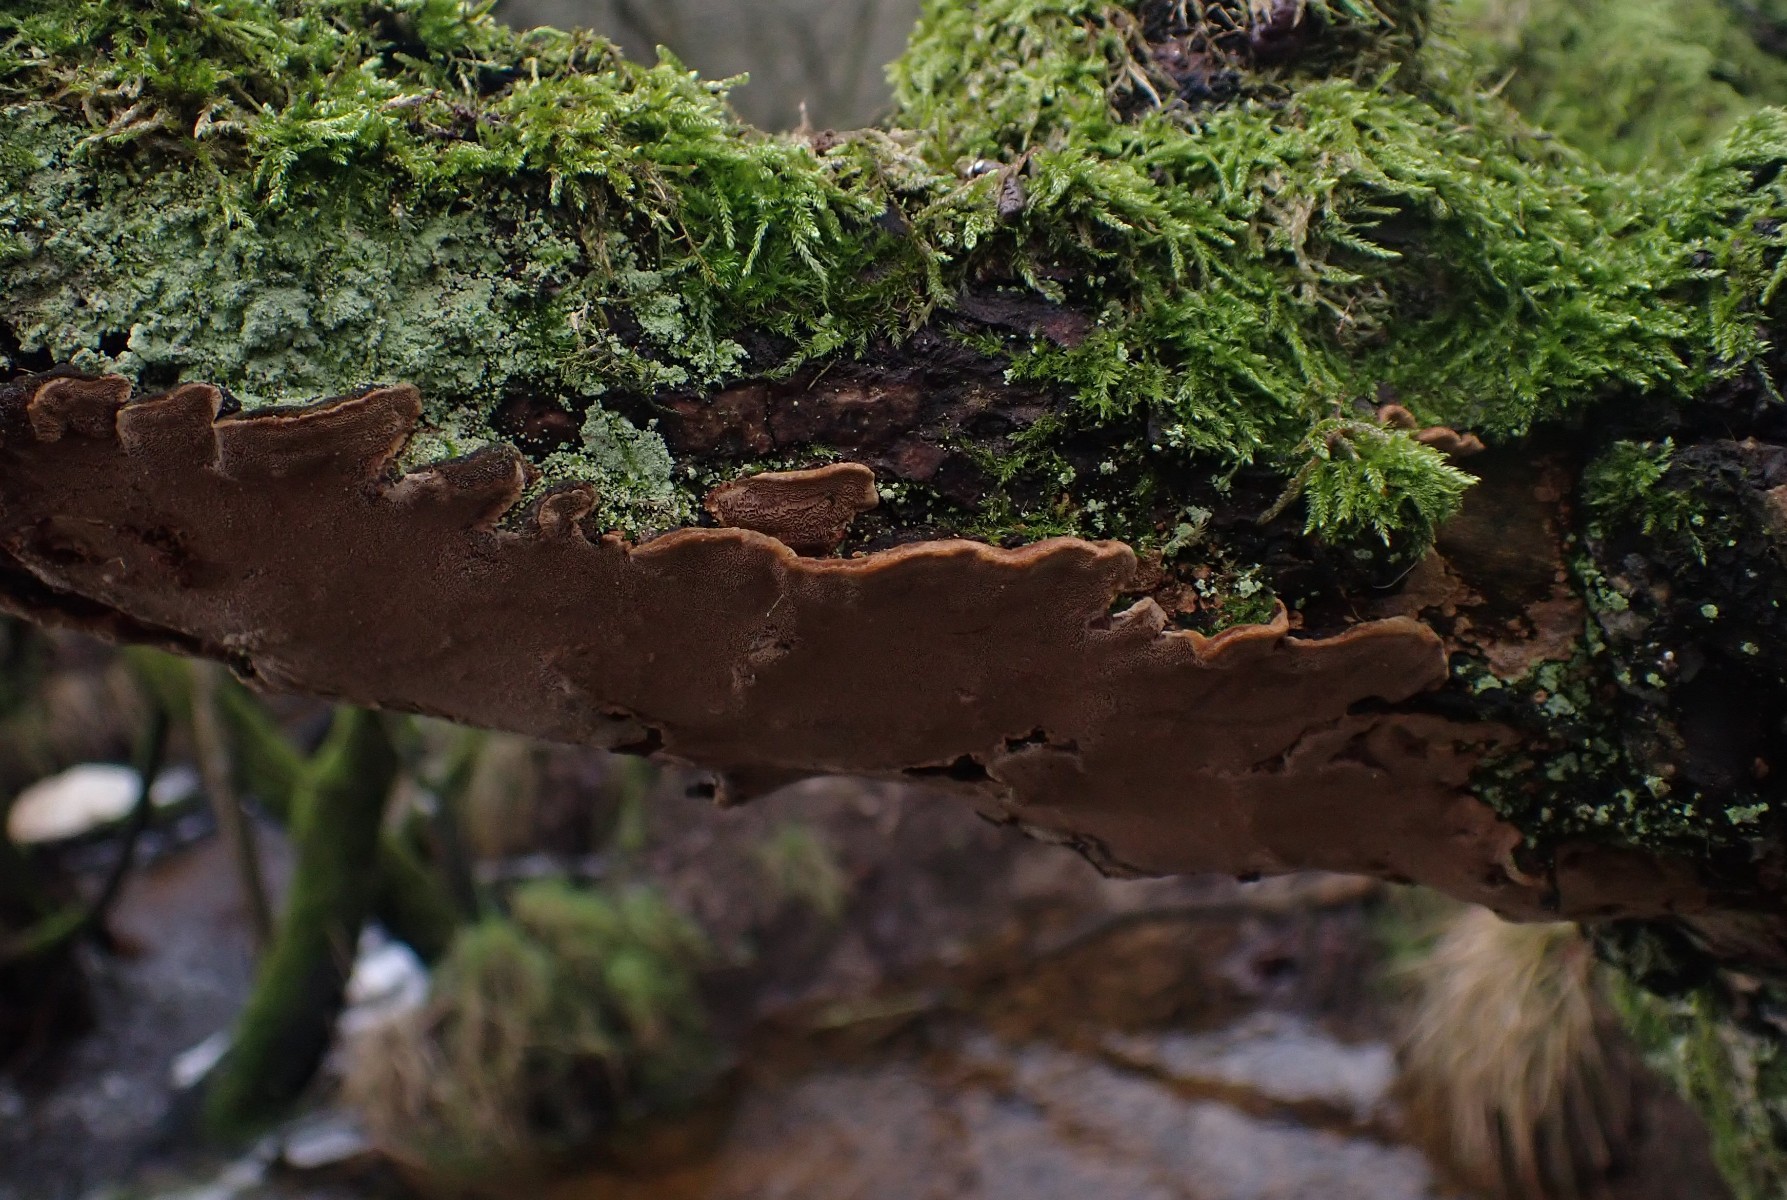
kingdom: Fungi
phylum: Basidiomycota
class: Agaricomycetes
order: Hymenochaetales
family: Hymenochaetaceae
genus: Phellinopsis
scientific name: Phellinopsis conchata
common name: pile-ildporesvamp
